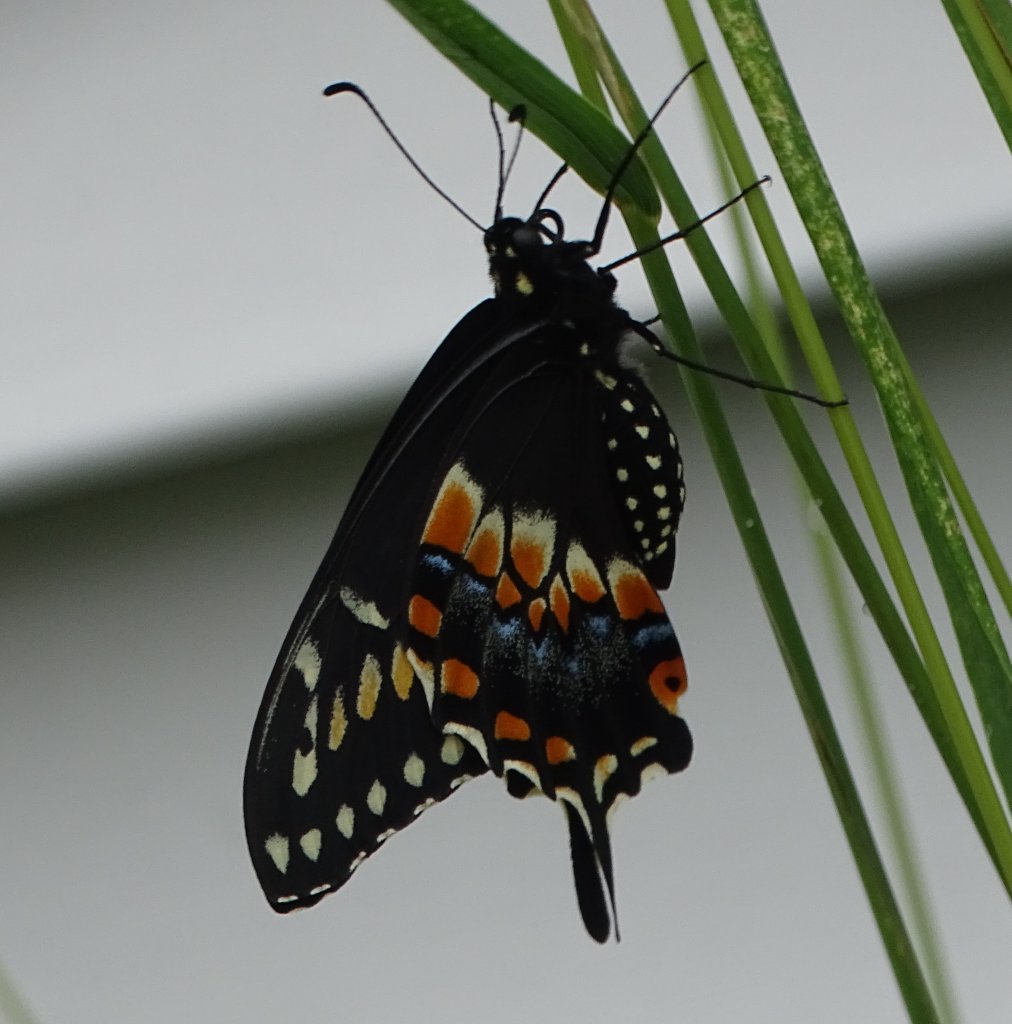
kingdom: Animalia
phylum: Arthropoda
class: Insecta
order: Lepidoptera
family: Papilionidae
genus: Papilio
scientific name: Papilio polyxenes
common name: Black Swallowtail
